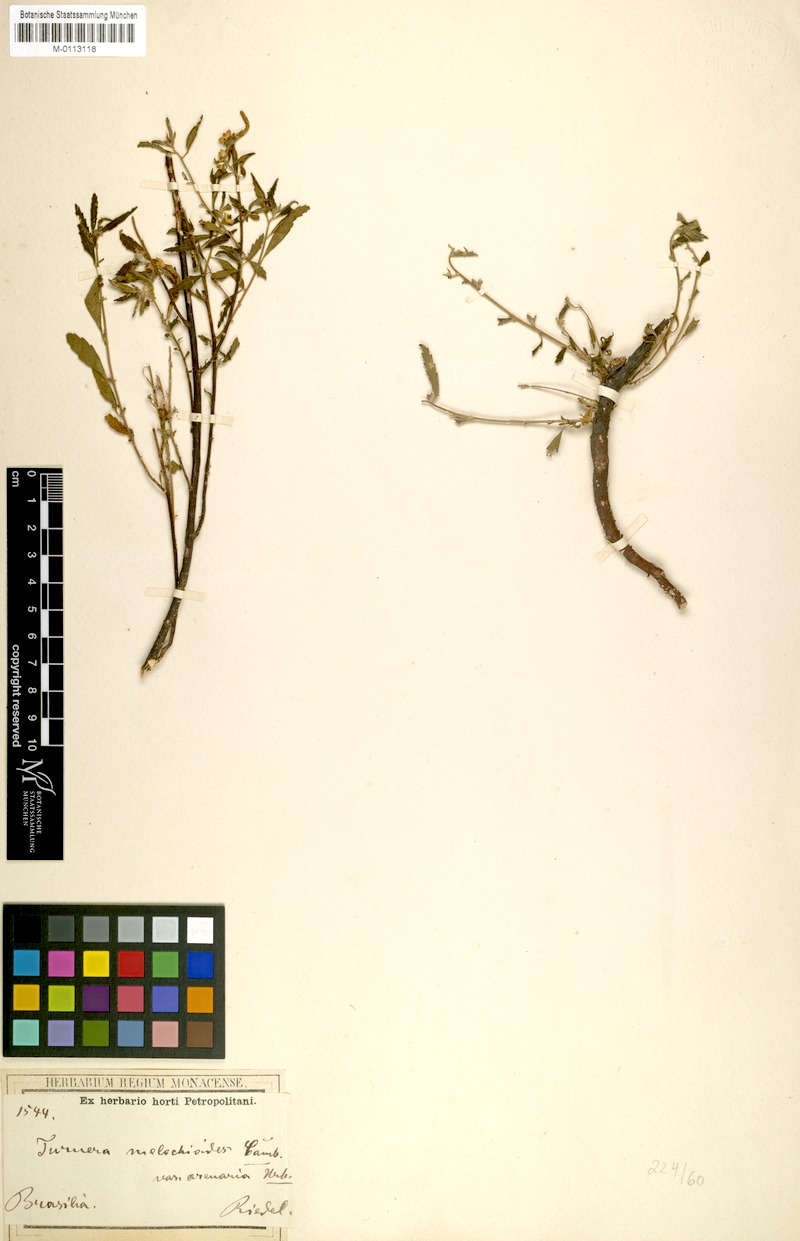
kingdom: Plantae
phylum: Tracheophyta
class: Magnoliopsida
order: Malpighiales
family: Turneraceae
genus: Turnera
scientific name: Turnera melochioides
